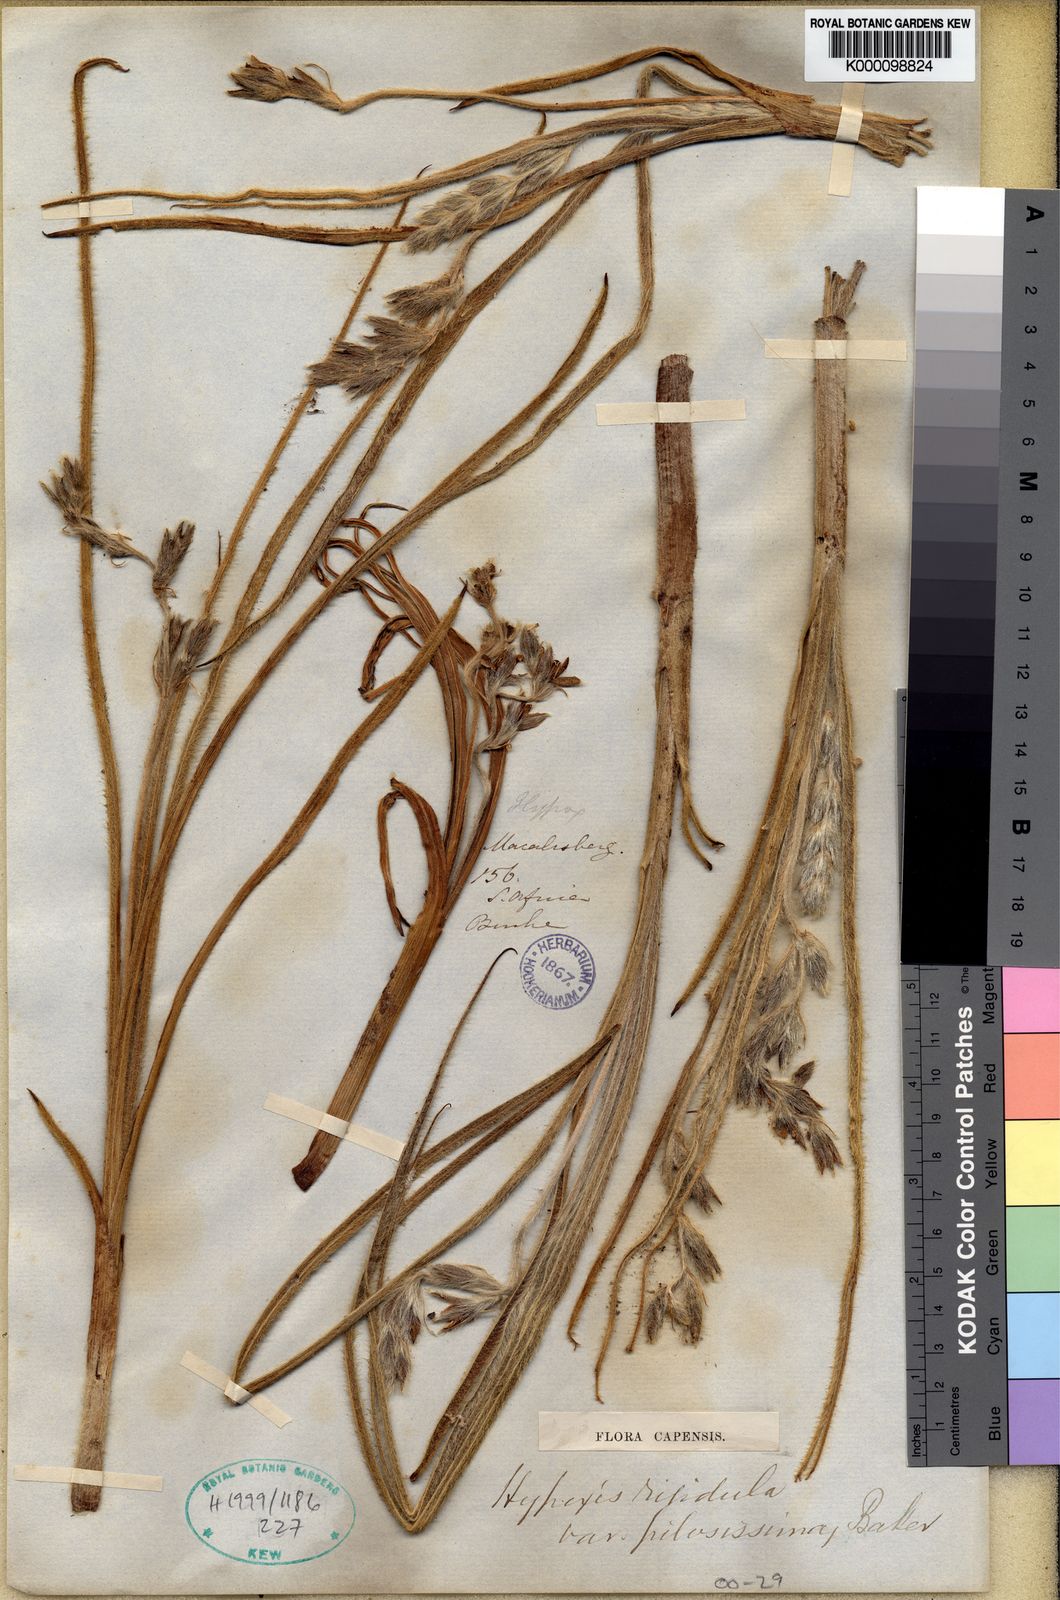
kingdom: Plantae
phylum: Tracheophyta
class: Liliopsida
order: Asparagales
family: Hypoxidaceae
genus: Hypoxis
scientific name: Hypoxis rigidula
